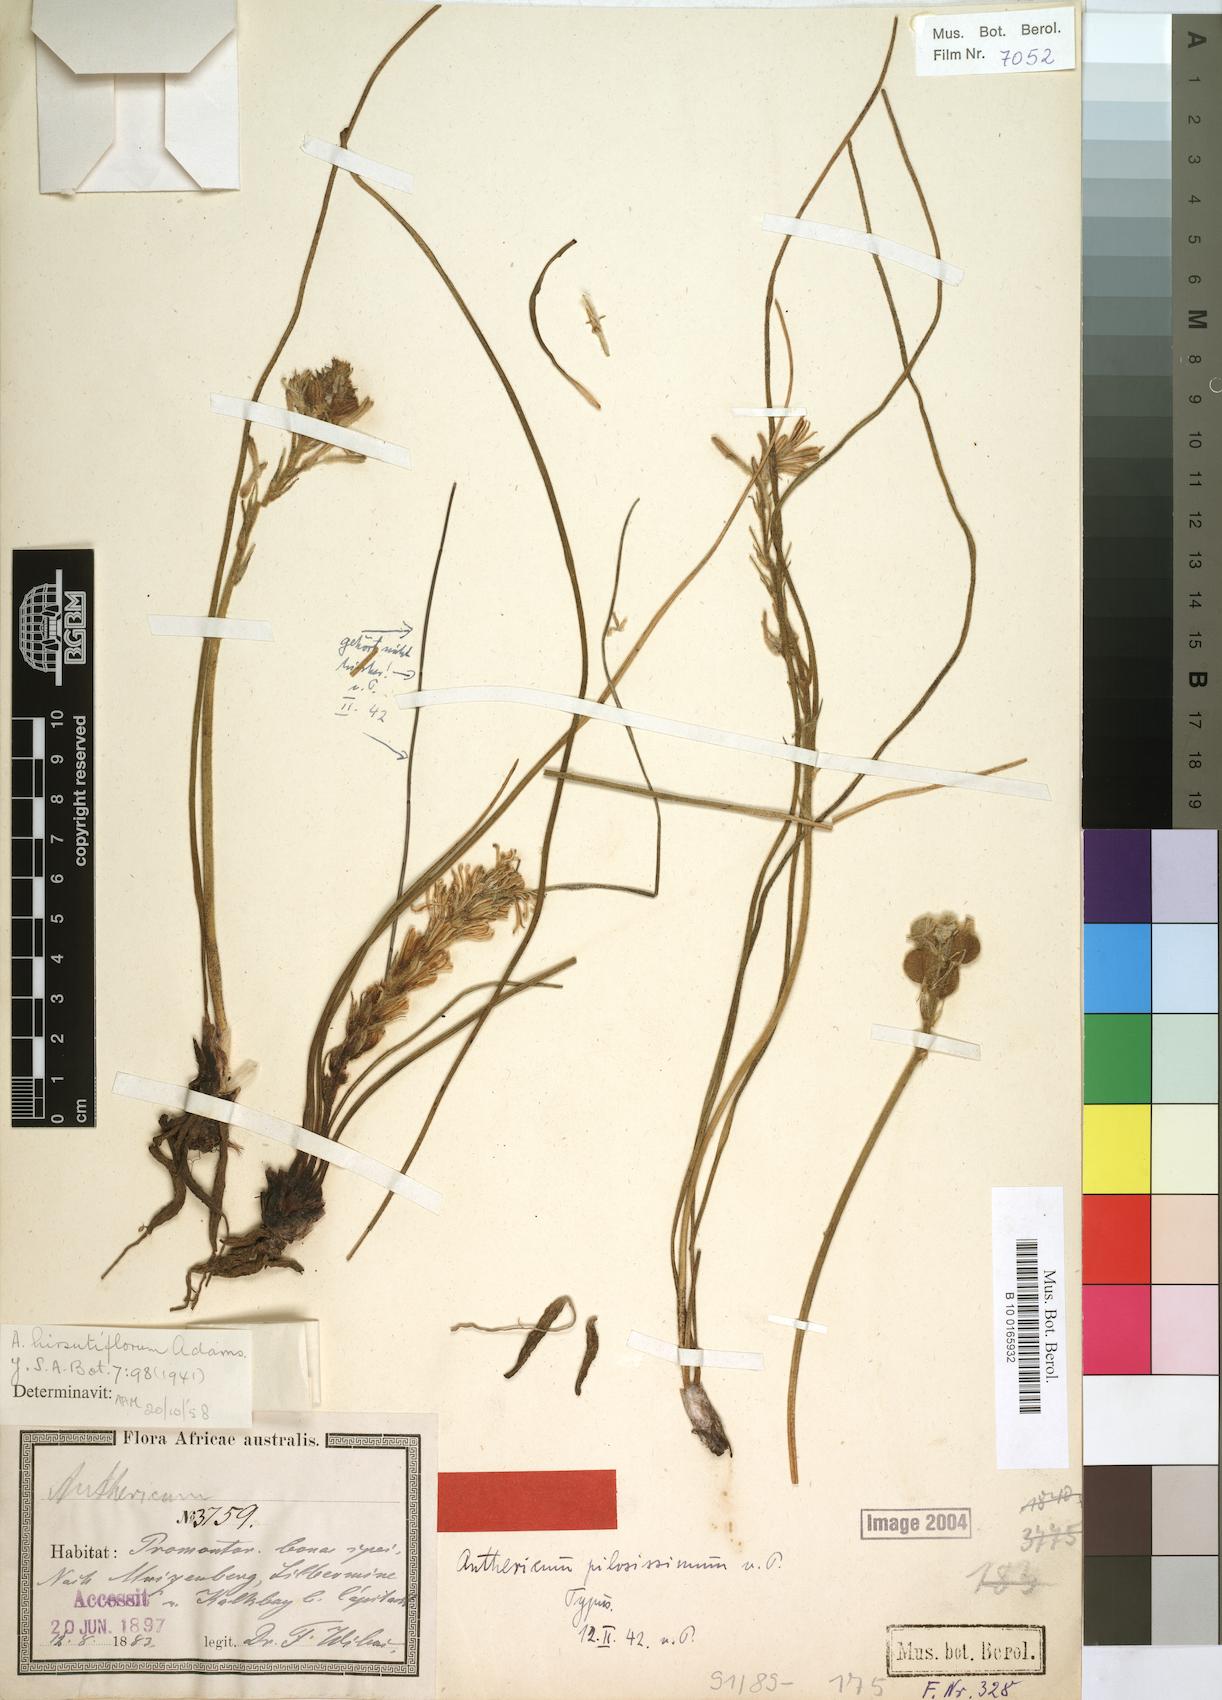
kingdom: Plantae
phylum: Tracheophyta
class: Liliopsida
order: Asparagales
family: Asphodelaceae
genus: Trachyandra
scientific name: Trachyandra hirsutiflora
